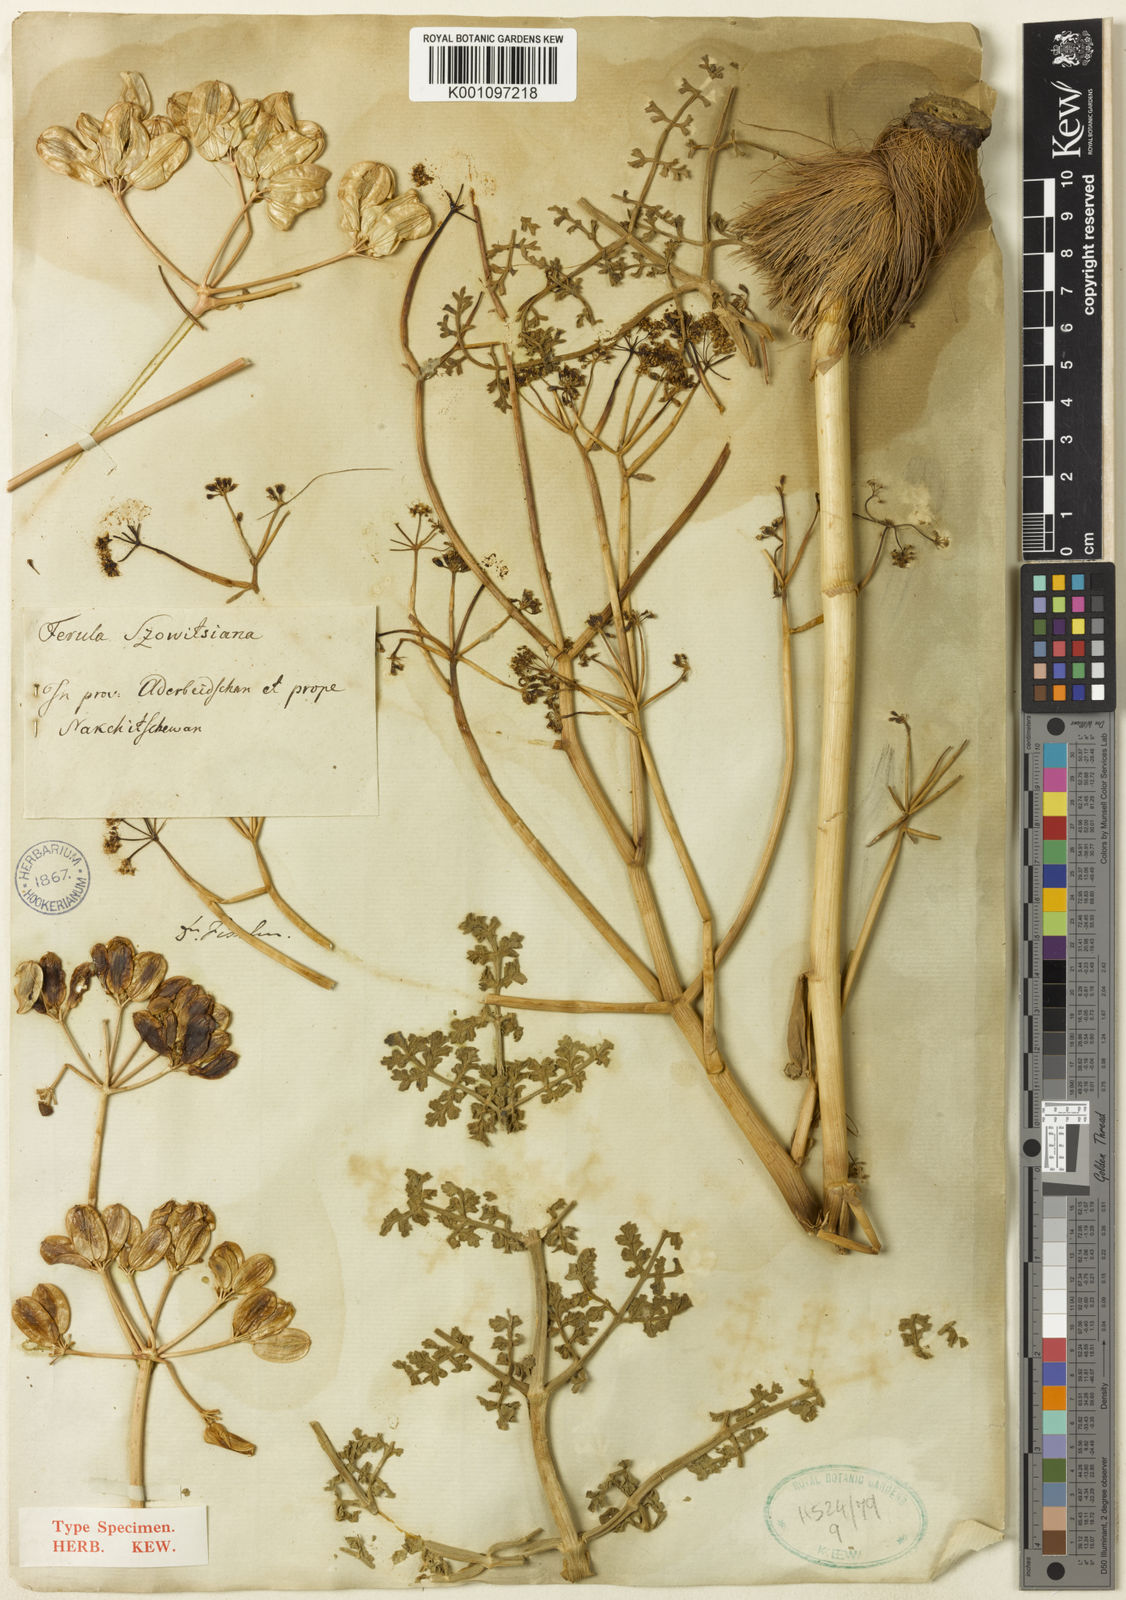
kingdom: Plantae
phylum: Tracheophyta
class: Magnoliopsida
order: Apiales
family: Apiaceae
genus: Ferula
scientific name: Ferula szowitsiana
